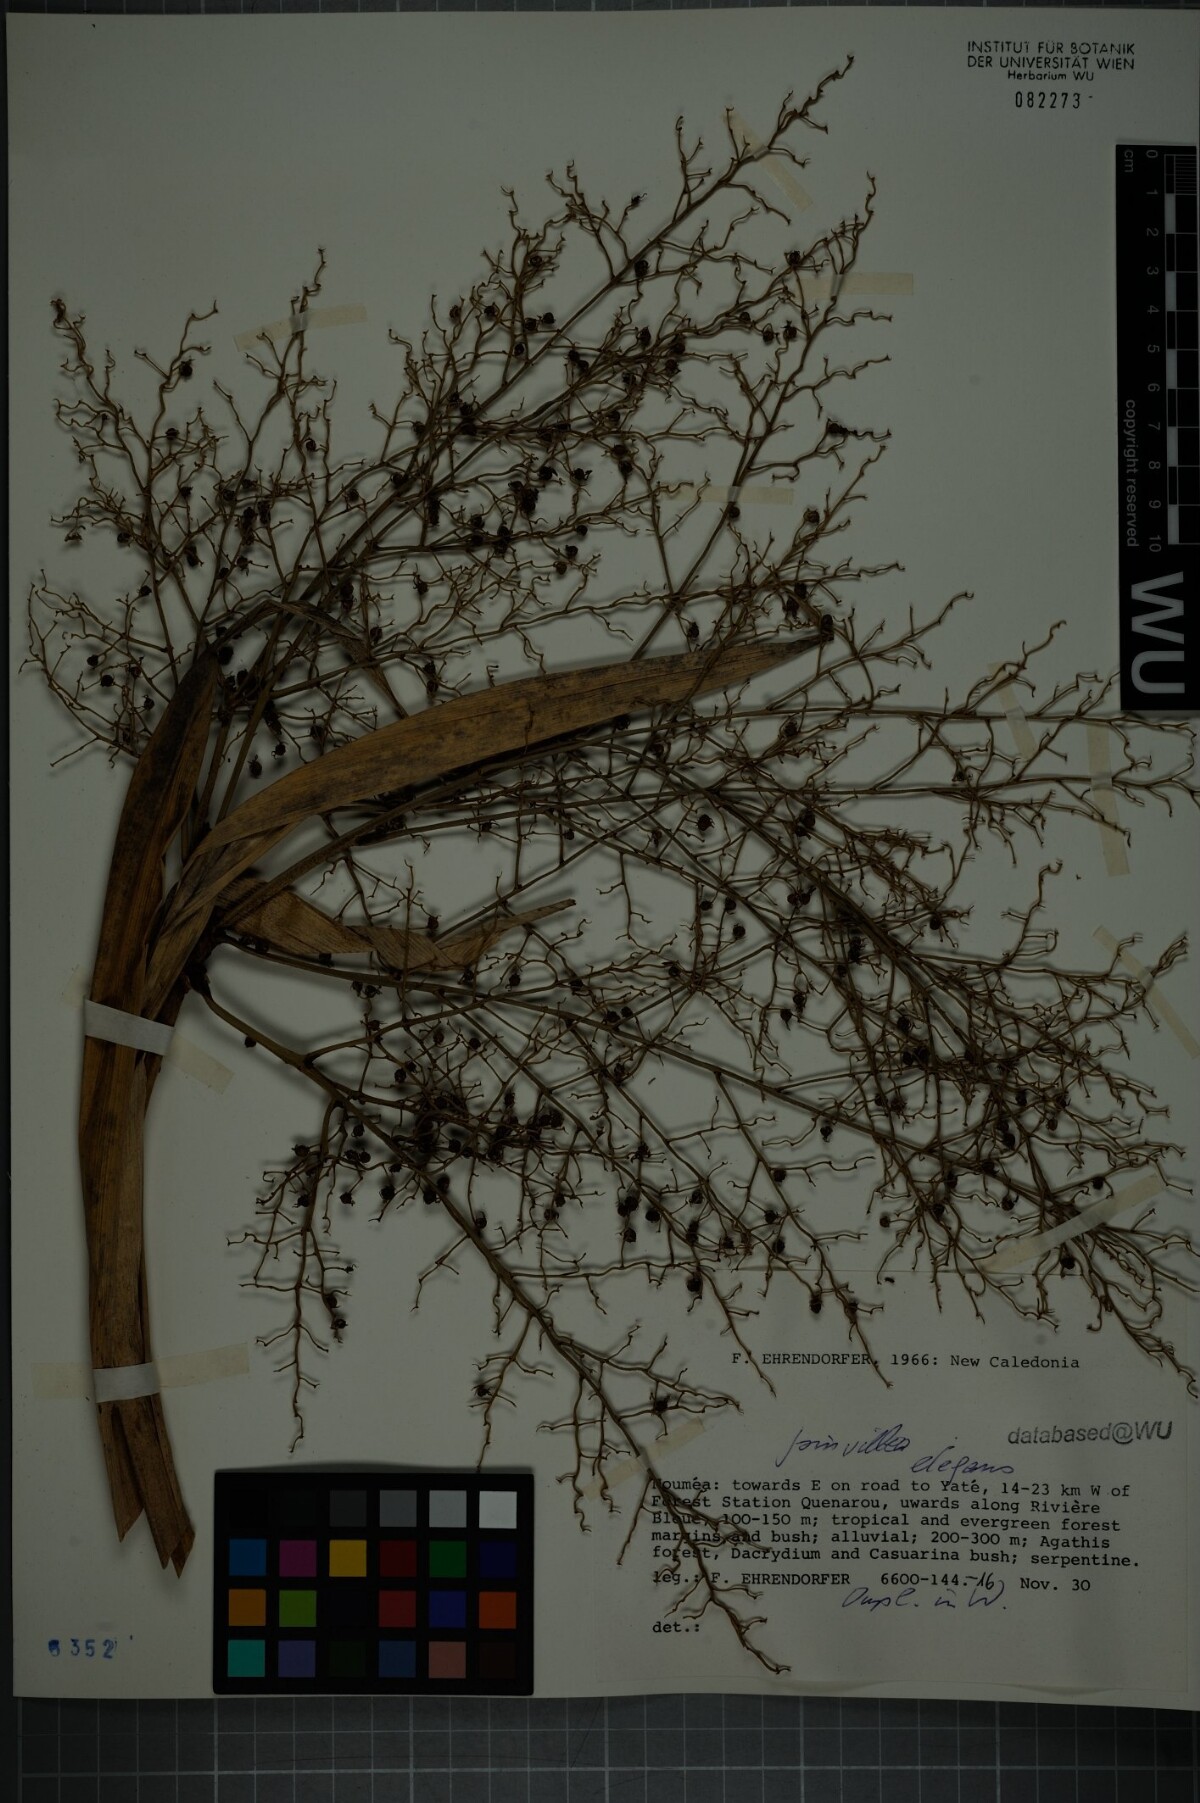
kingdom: Plantae
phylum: Tracheophyta
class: Liliopsida
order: Poales
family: Joinvilleaceae
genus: Joinvillea
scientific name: Joinvillea plicata
